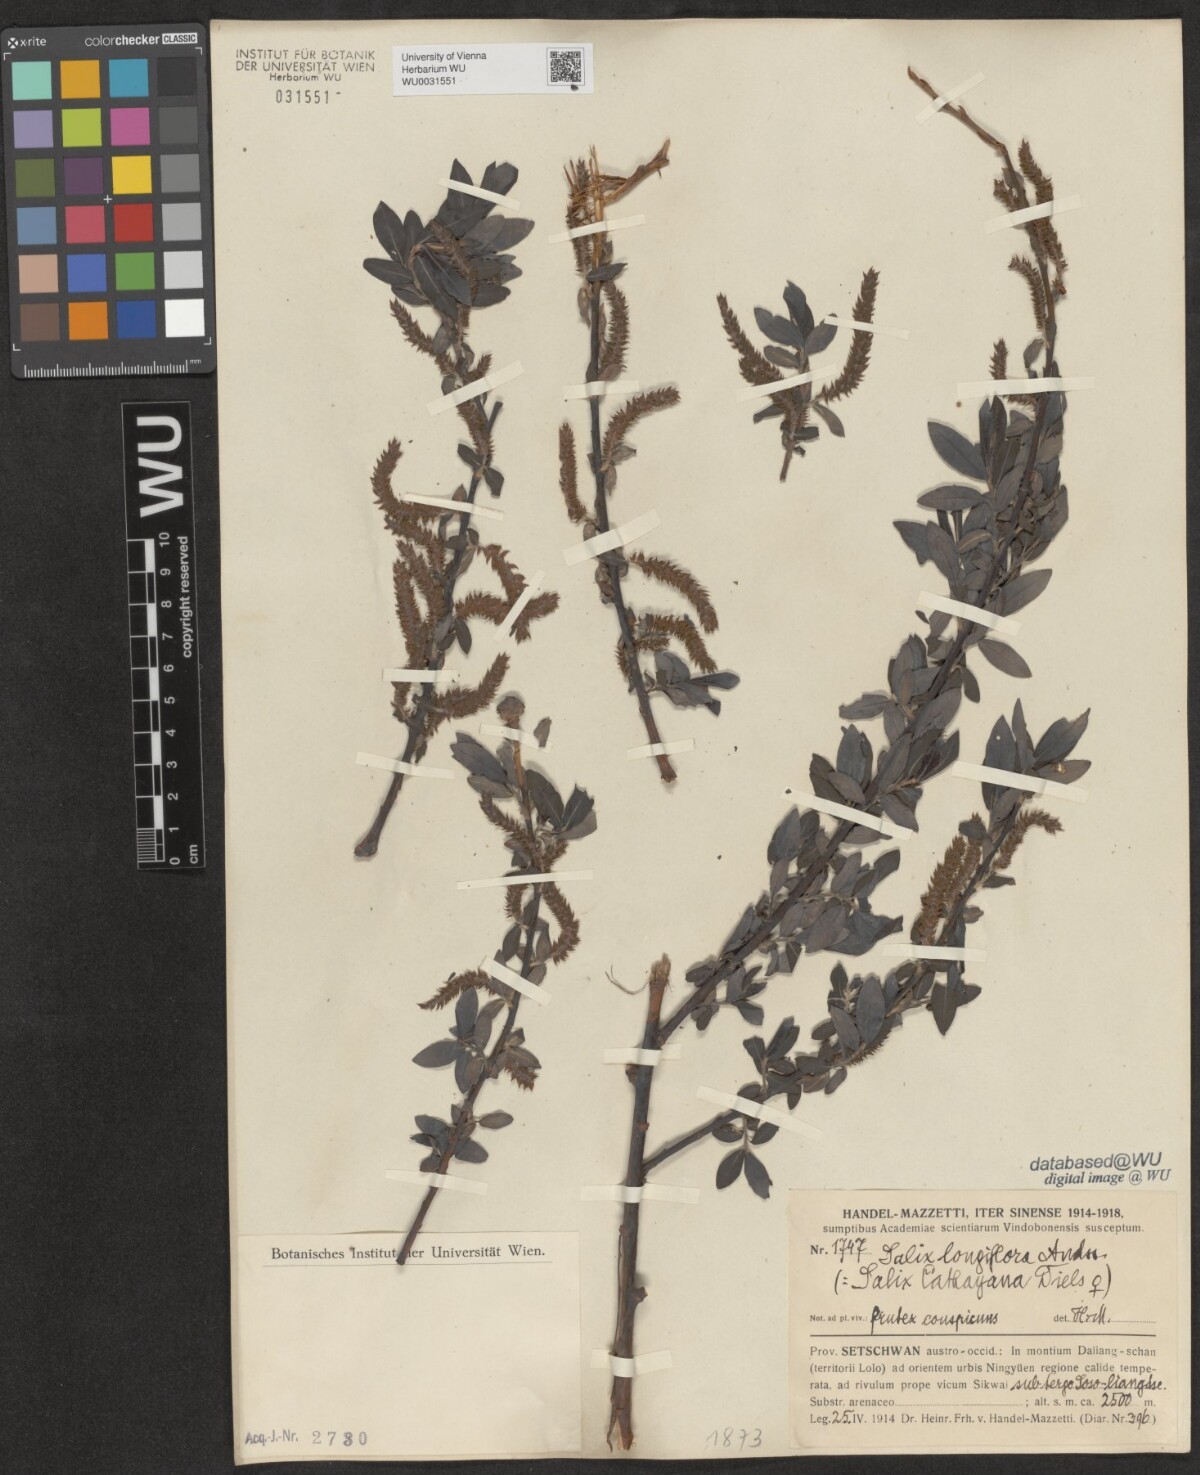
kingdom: Plantae
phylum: Tracheophyta
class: Magnoliopsida
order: Malpighiales
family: Salicaceae
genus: Salix
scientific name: Salix longiflora
